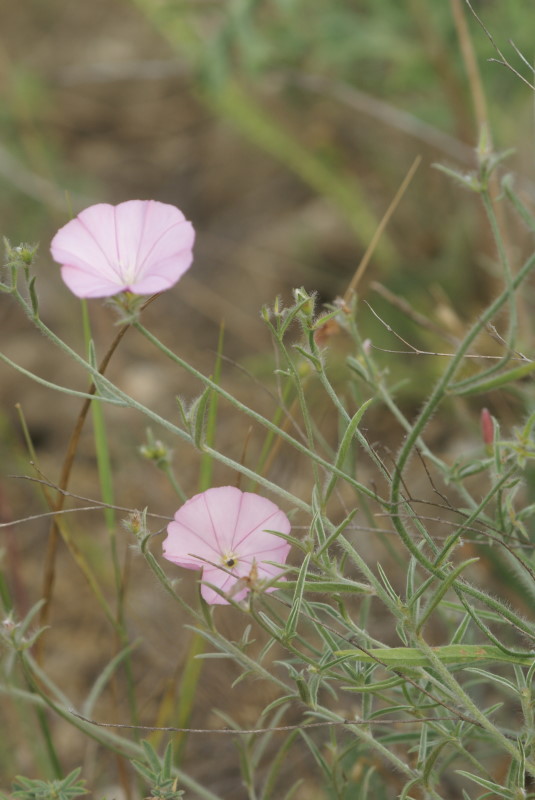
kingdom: Plantae
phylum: Tracheophyta
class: Magnoliopsida
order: Solanales
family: Convolvulaceae
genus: Convolvulus
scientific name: Convolvulus cantabrica
